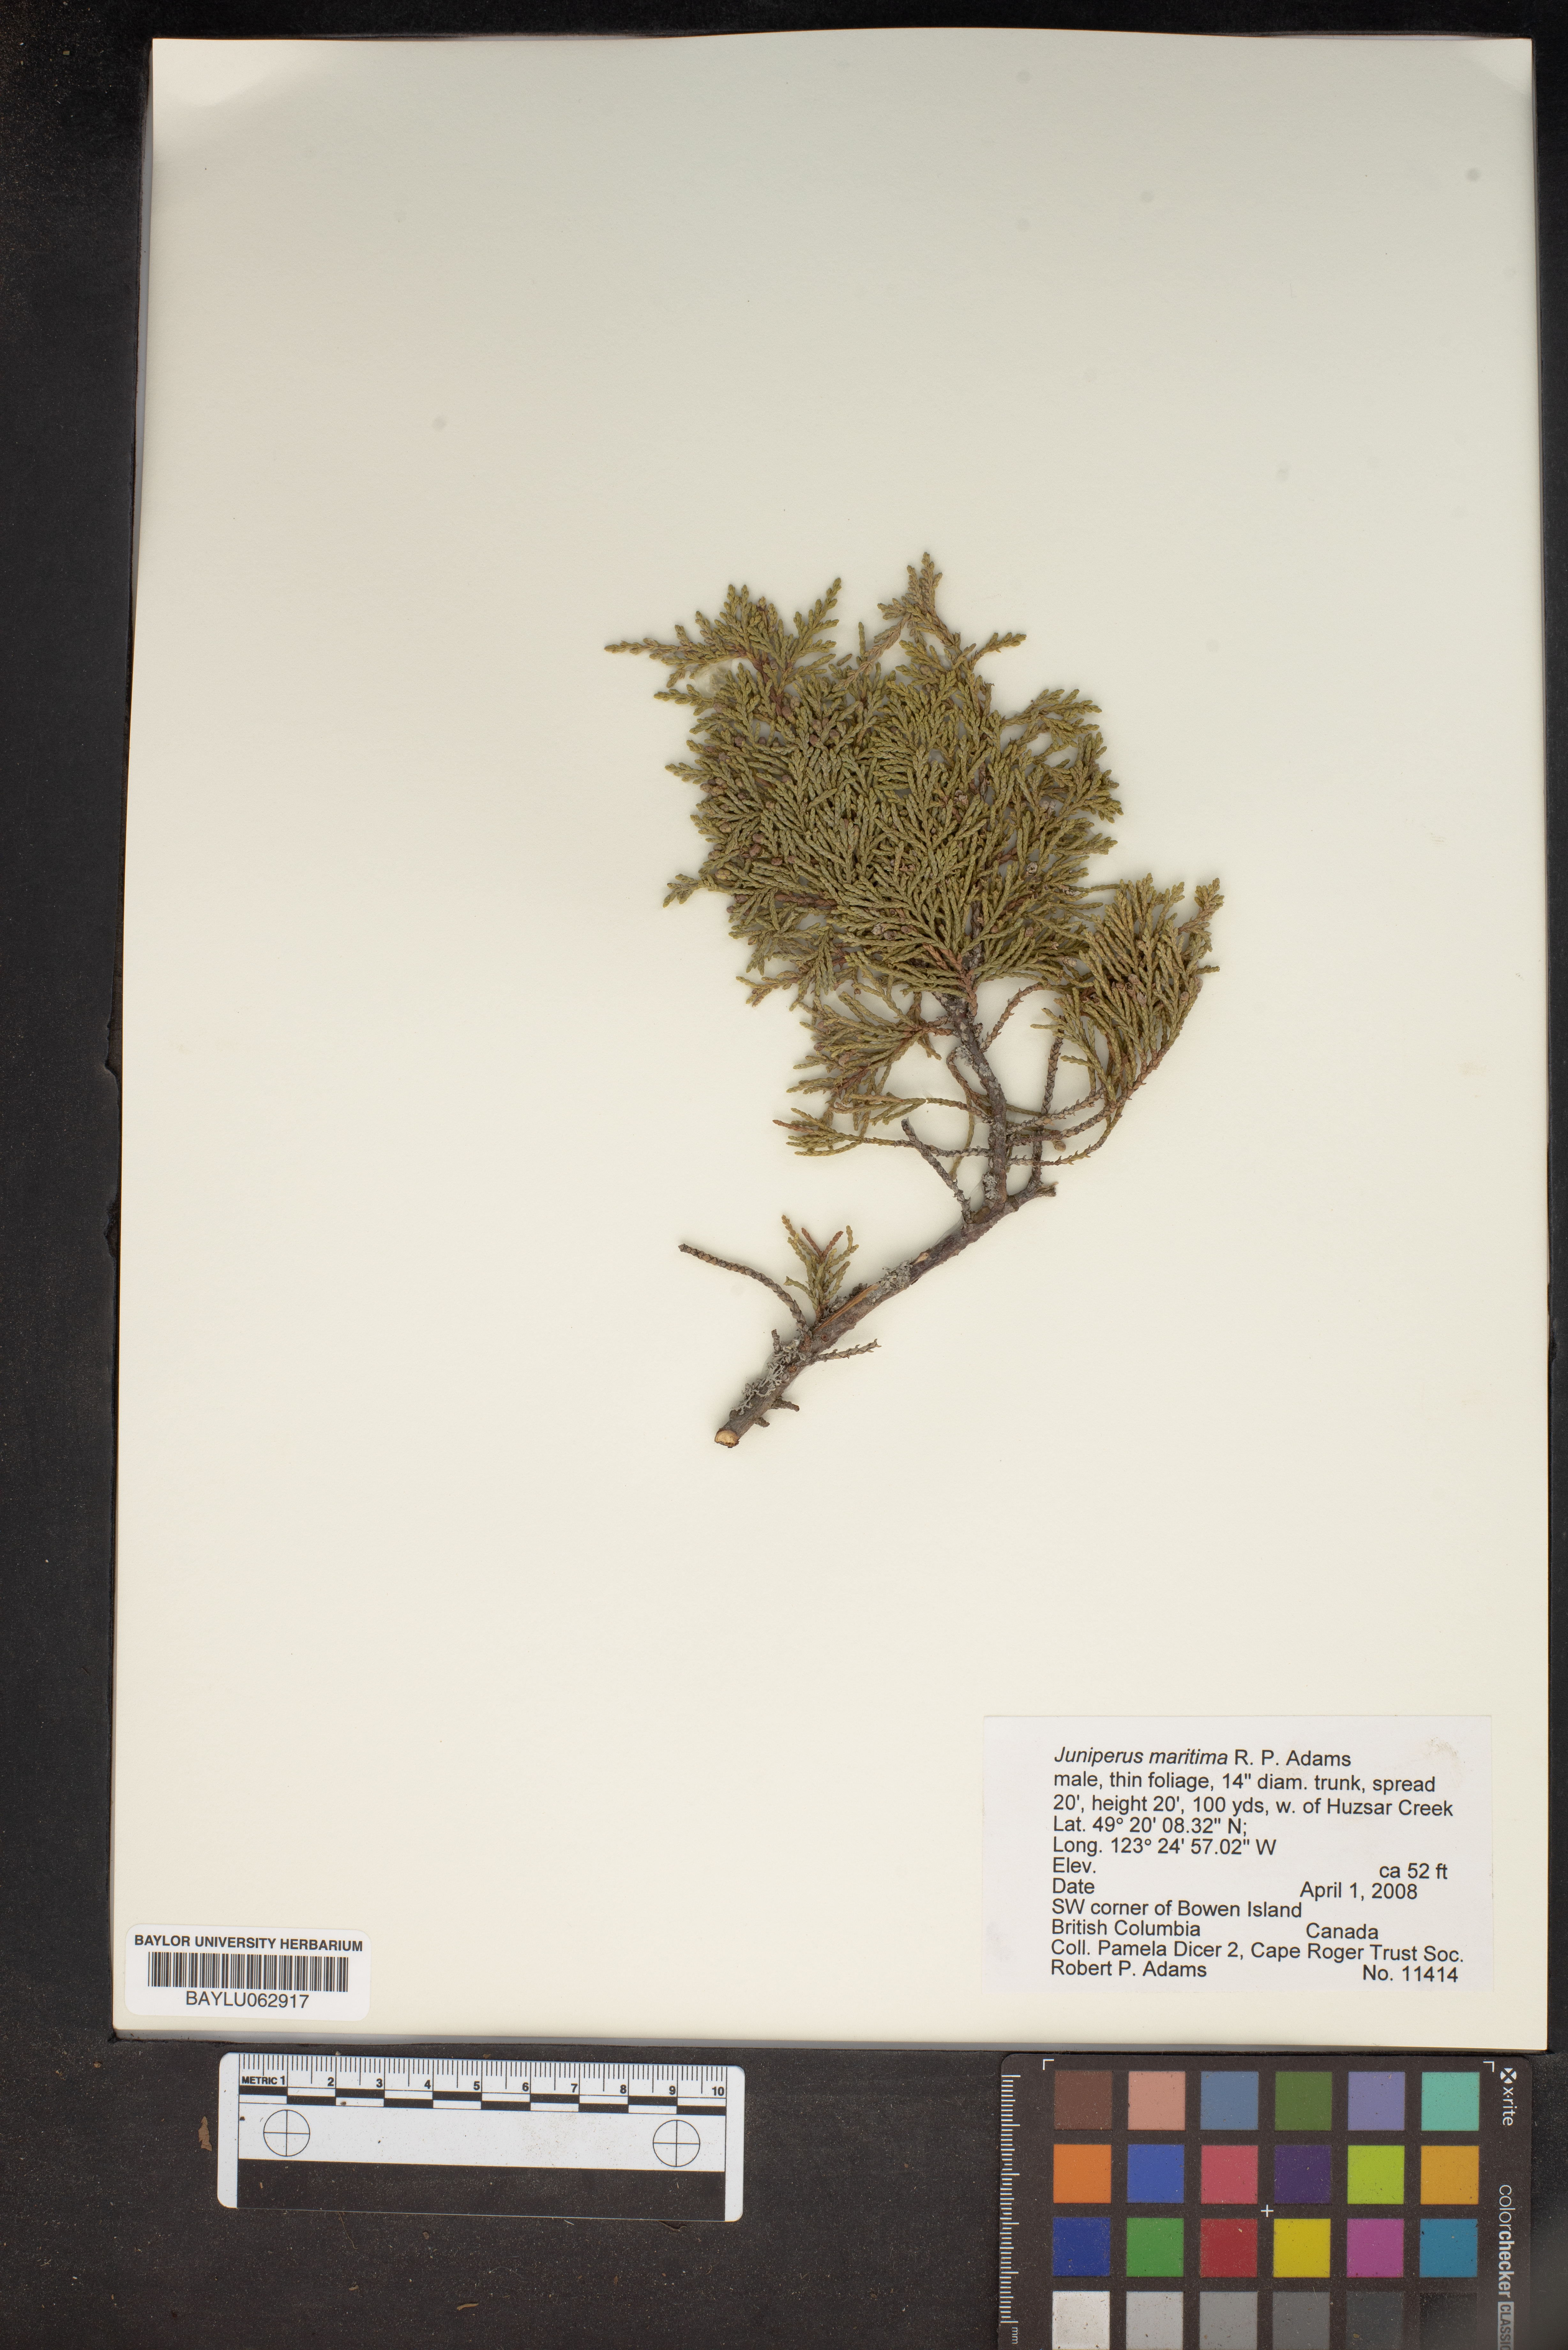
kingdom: Plantae
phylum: Tracheophyta
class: Pinopsida
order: Pinales
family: Cupressaceae
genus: Juniperus
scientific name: Juniperus scopulorum
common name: Rocky mountain juniper
